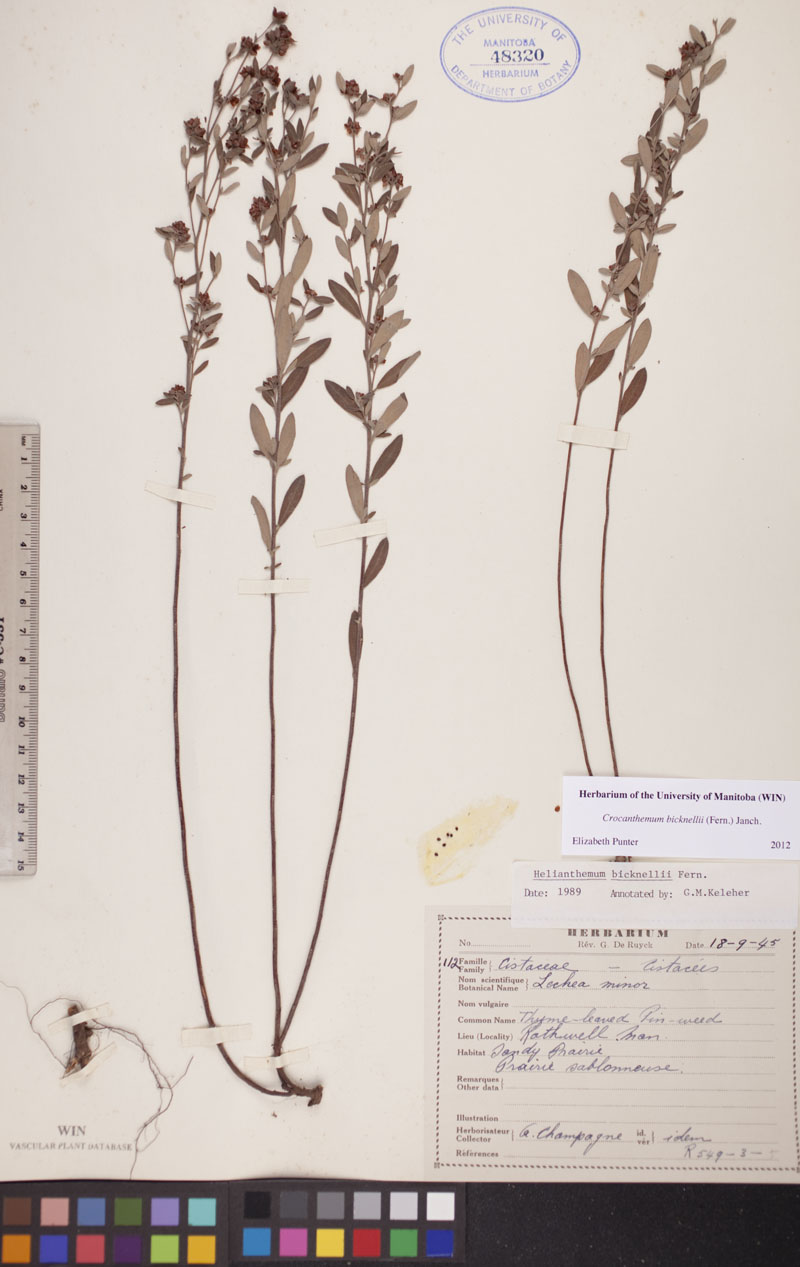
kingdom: Plantae
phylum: Tracheophyta
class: Magnoliopsida
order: Malvales
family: Cistaceae
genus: Crocanthemum
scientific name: Crocanthemum bicknellii
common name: Hoary frostweed
